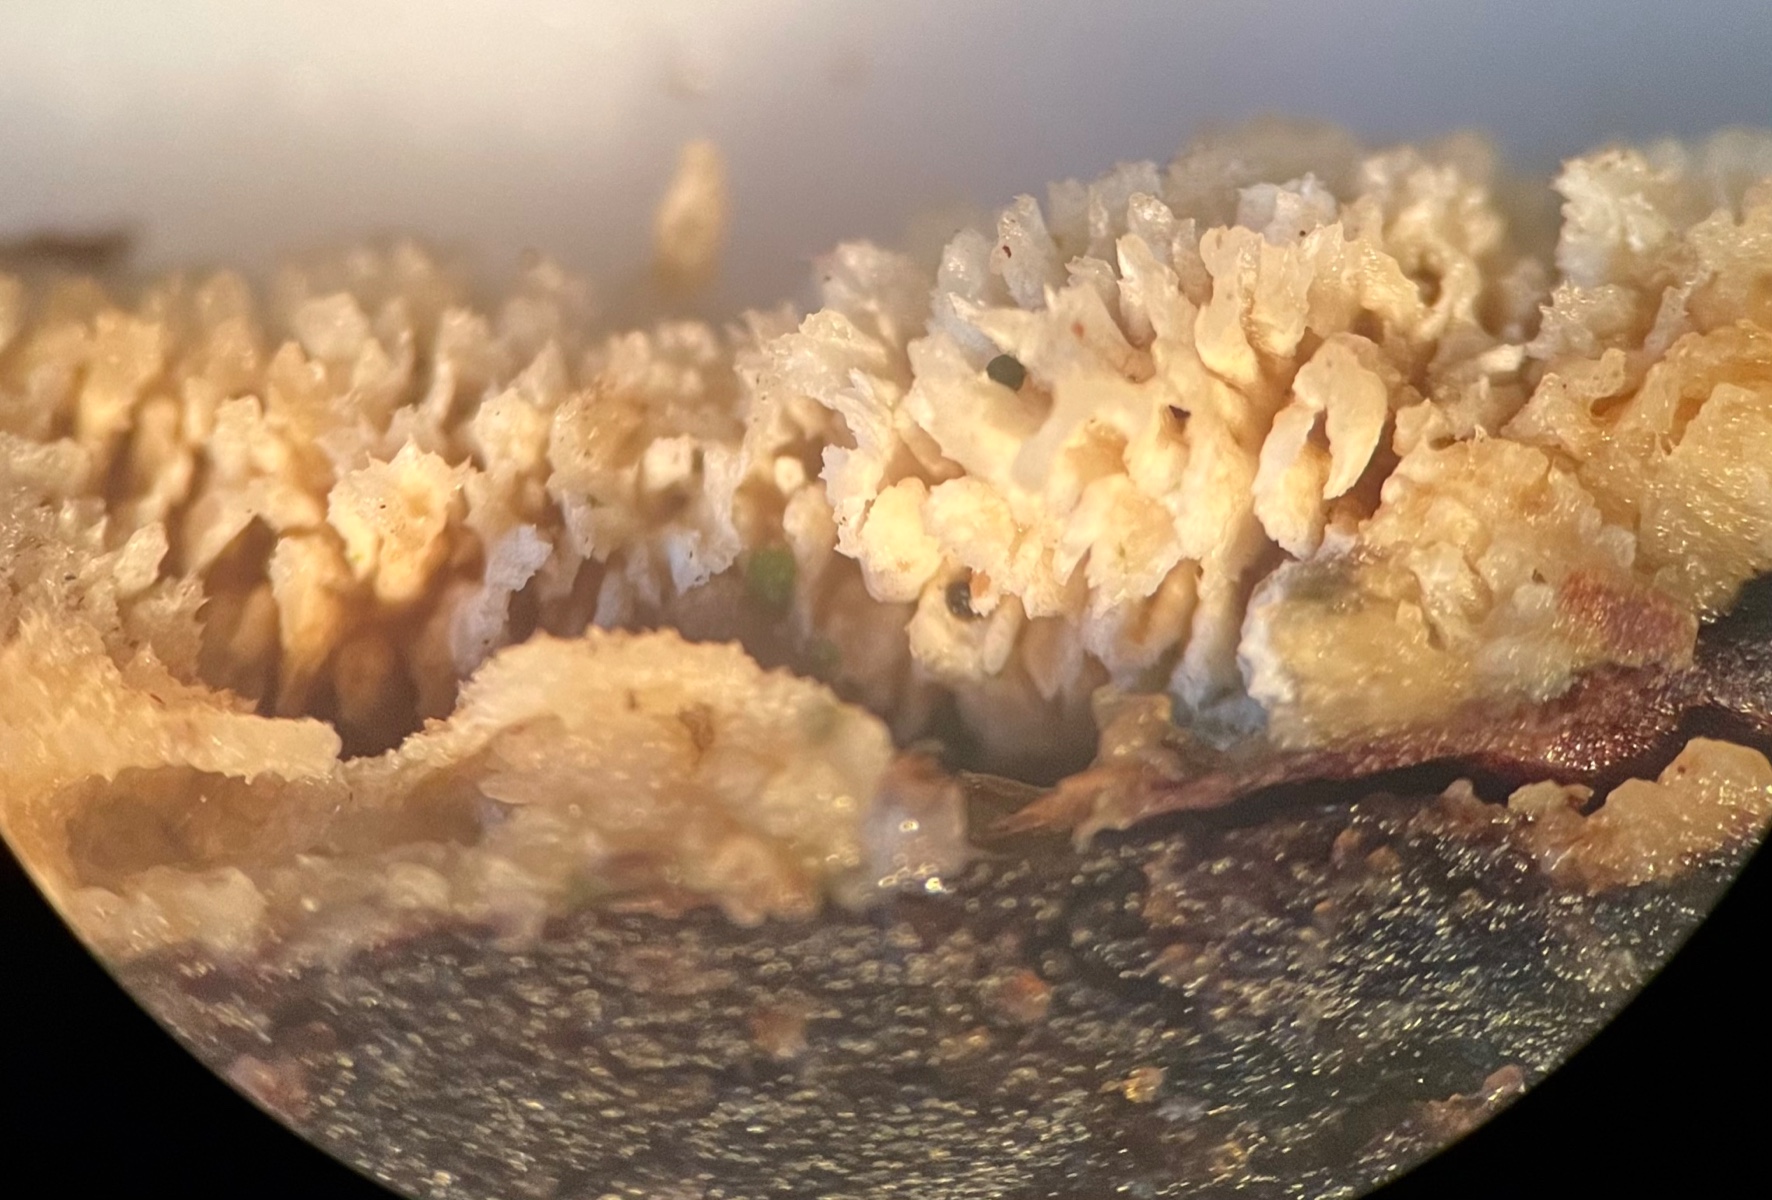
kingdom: Fungi
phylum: Basidiomycota
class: Agaricomycetes
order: Corticiales
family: Corticiaceae
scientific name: Corticiaceae
